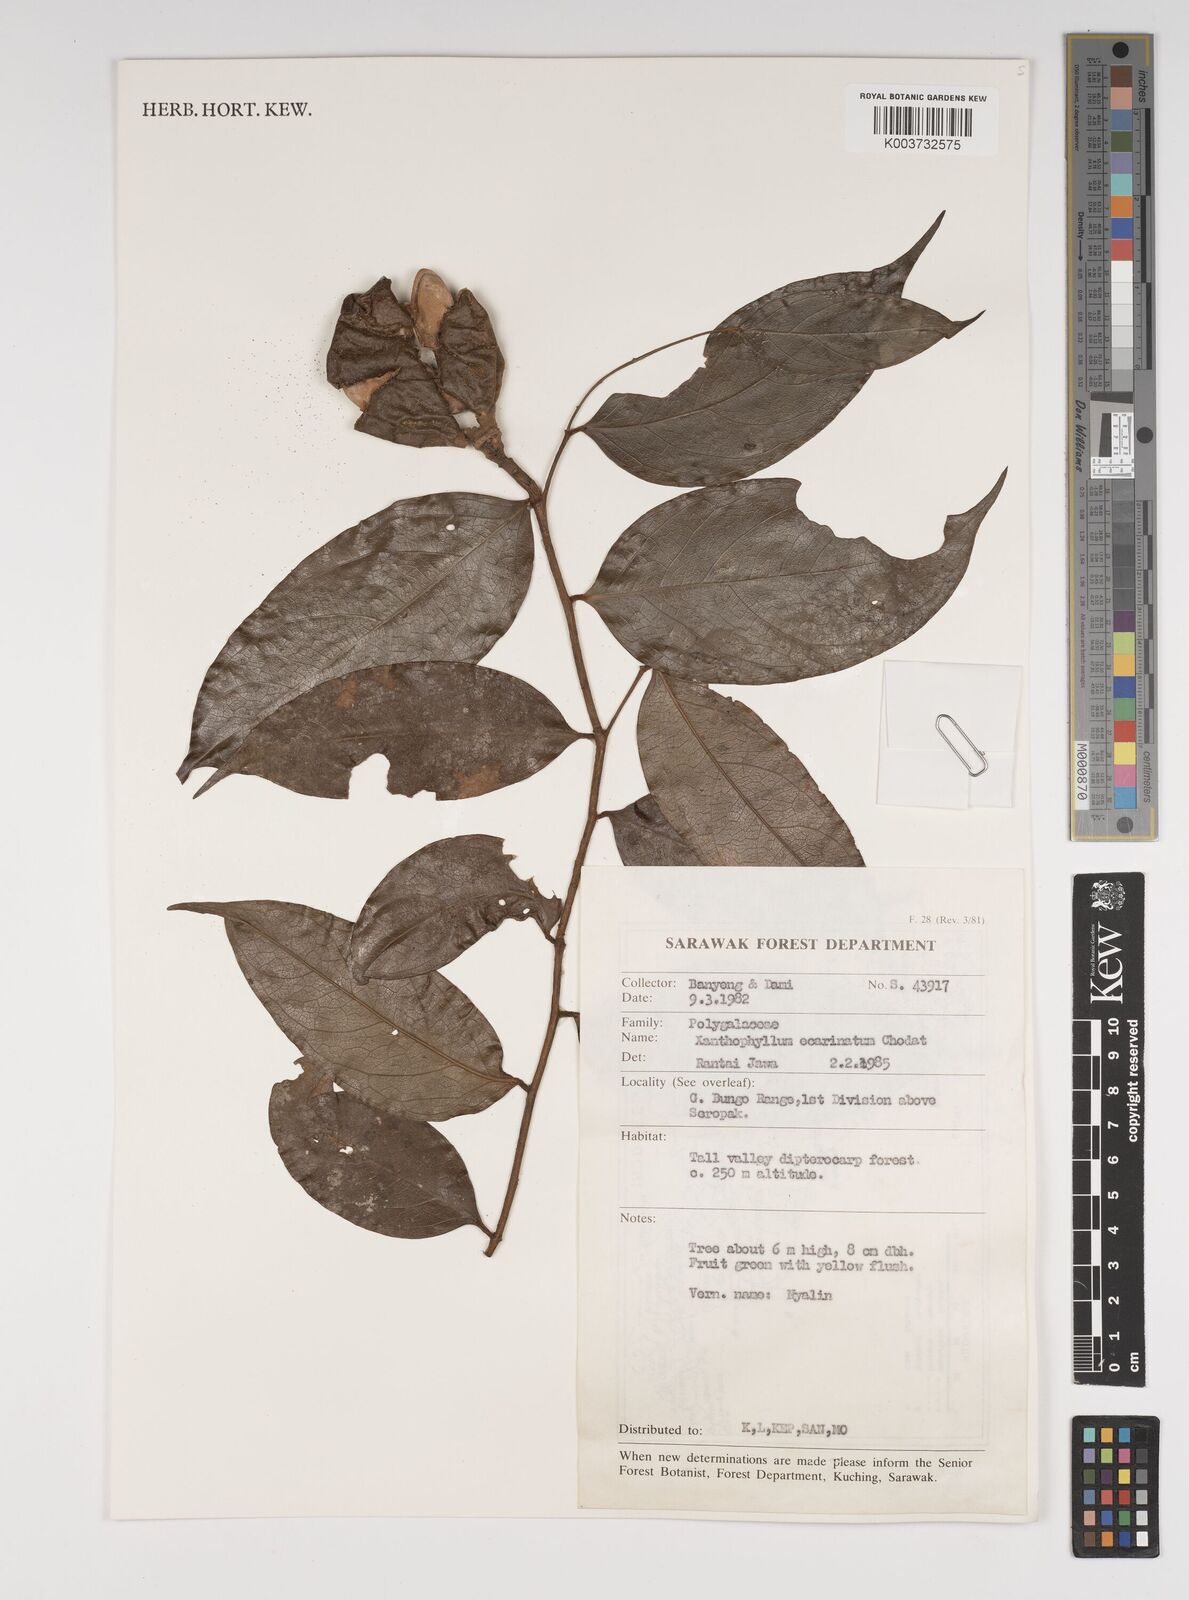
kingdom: Plantae
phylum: Tracheophyta
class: Magnoliopsida
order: Fabales
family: Polygalaceae
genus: Xanthophyllum
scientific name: Xanthophyllum ecarinatum
